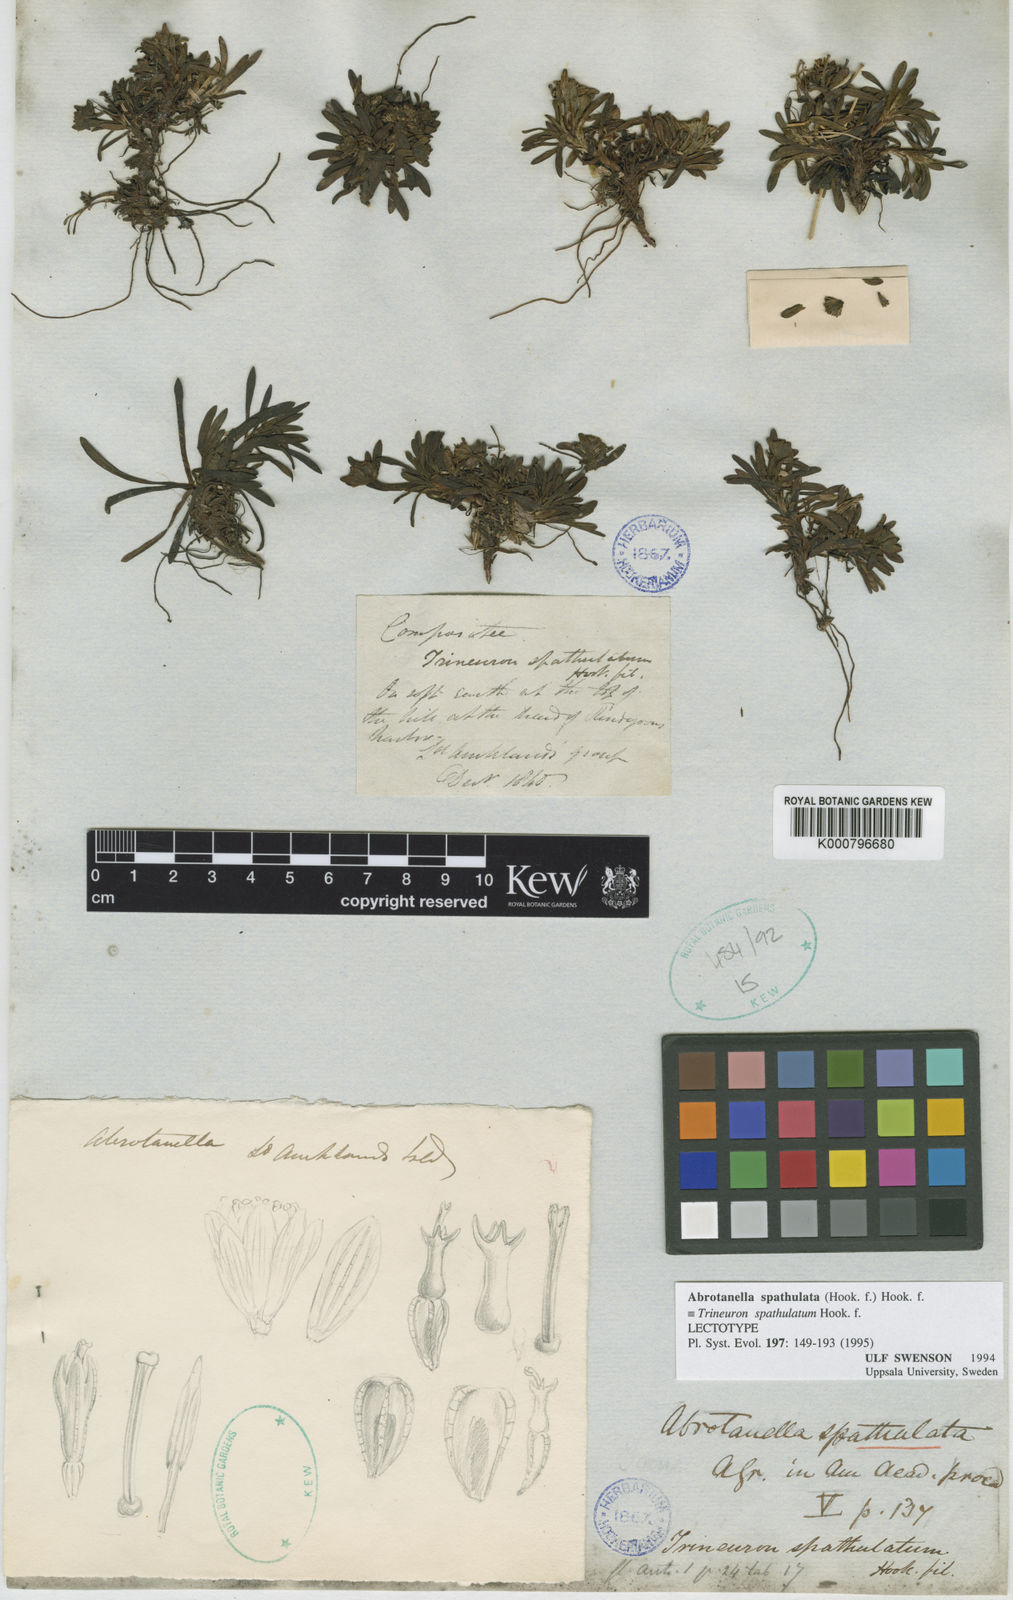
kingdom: Plantae
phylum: Tracheophyta
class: Magnoliopsida
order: Asterales
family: Asteraceae
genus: Abrotanella
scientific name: Abrotanella spathulata
